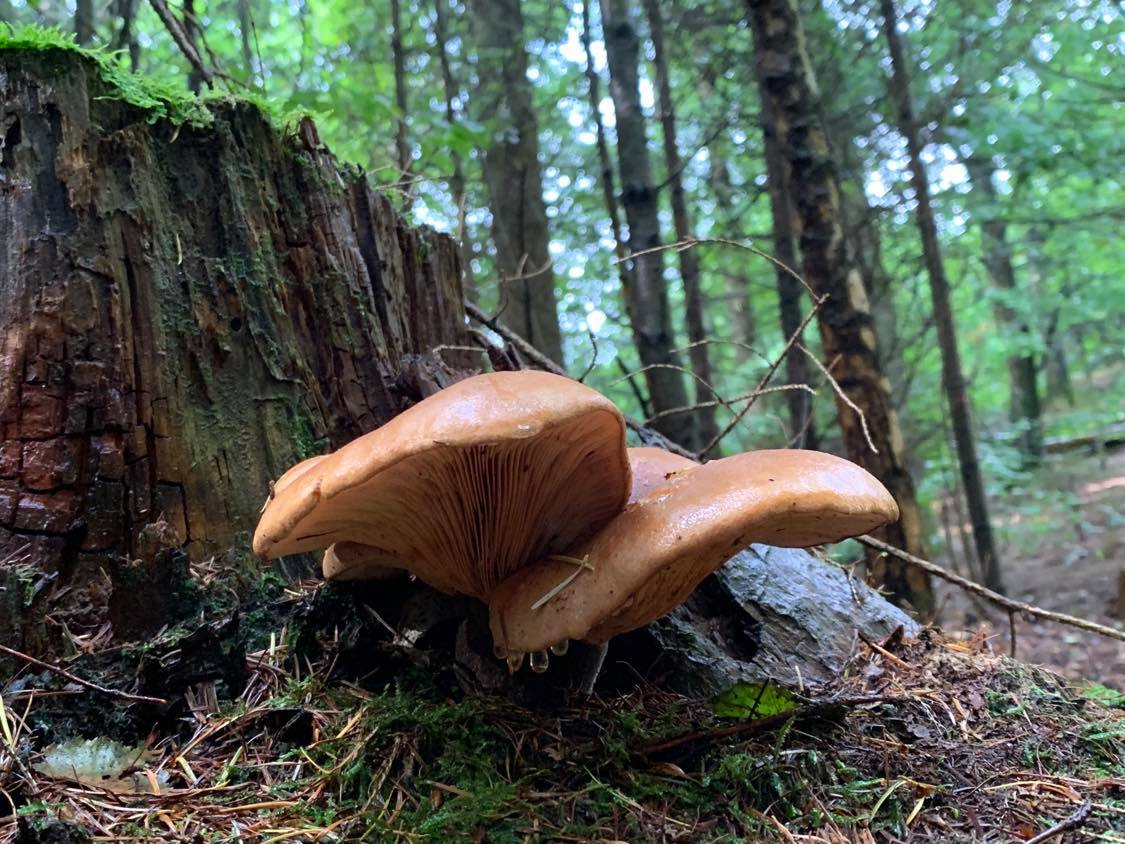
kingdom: Fungi
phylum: Basidiomycota
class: Agaricomycetes
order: Boletales
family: Tapinellaceae
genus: Tapinella
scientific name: Tapinella atrotomentosa
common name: sortfiltet viftesvamp
